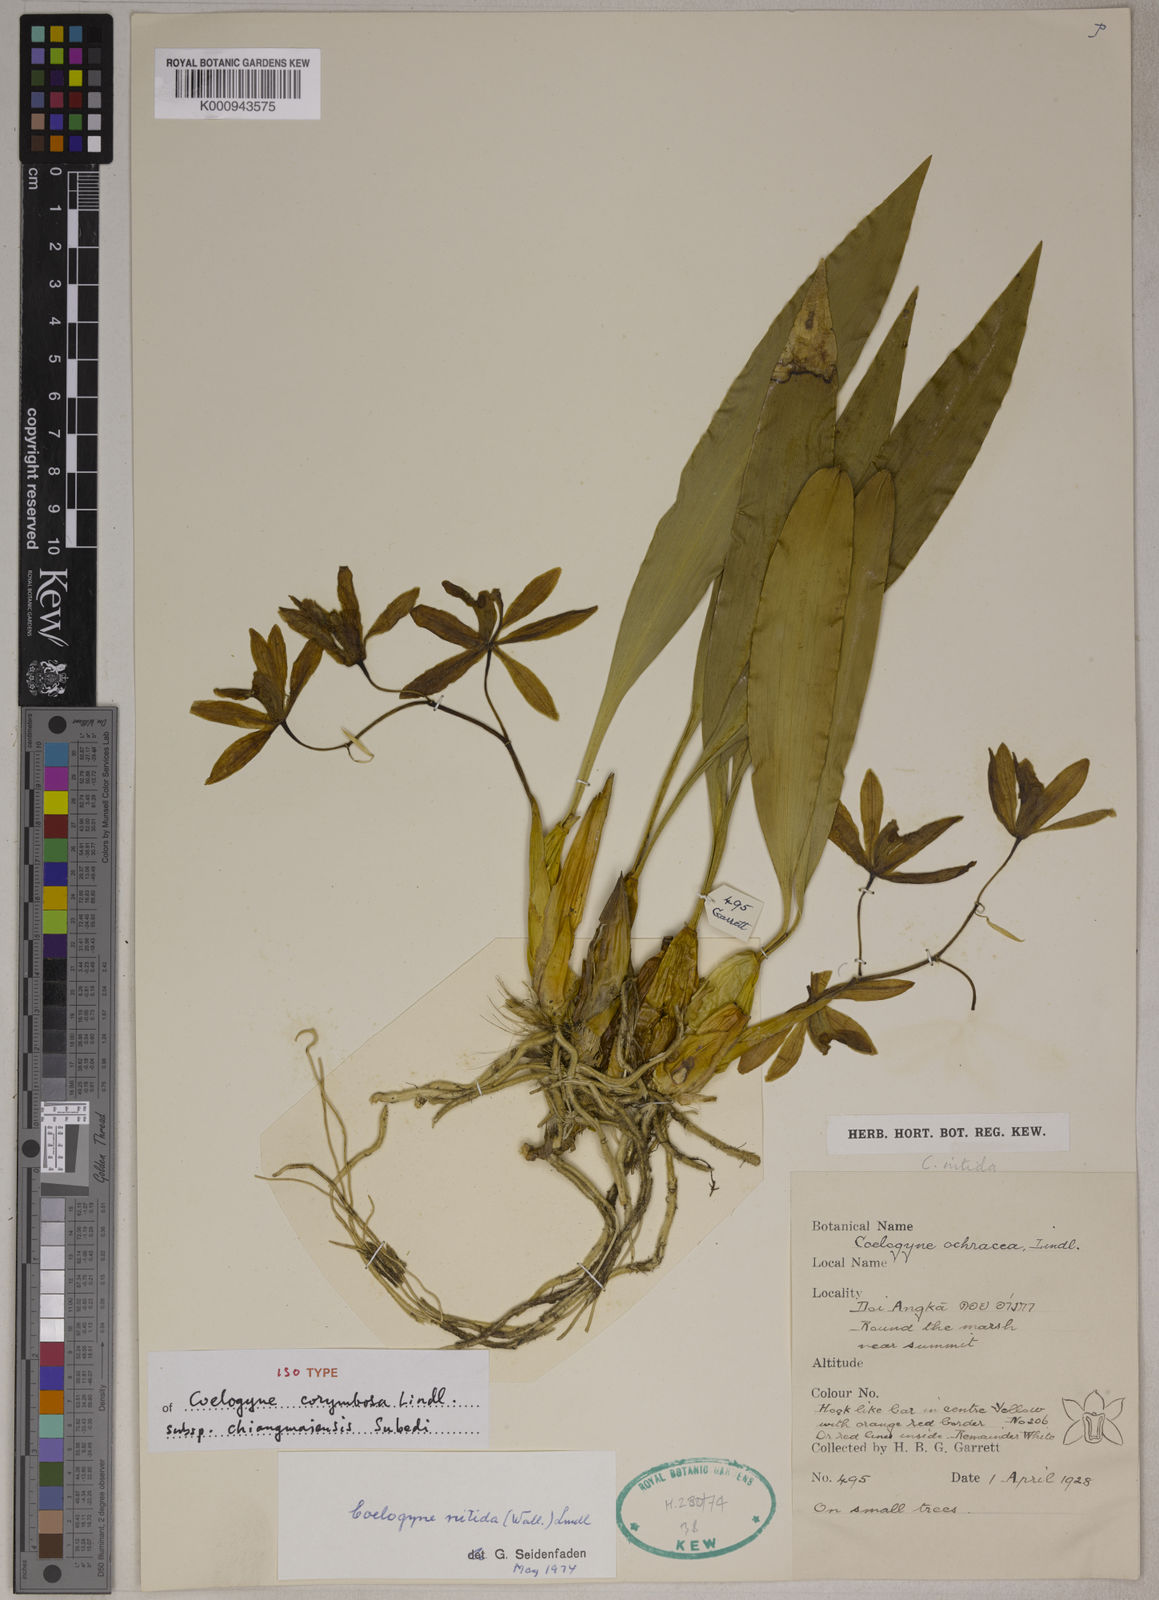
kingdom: Plantae
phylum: Tracheophyta
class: Liliopsida
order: Asparagales
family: Orchidaceae
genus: Coelogyne
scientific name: Coelogyne corymbosa
